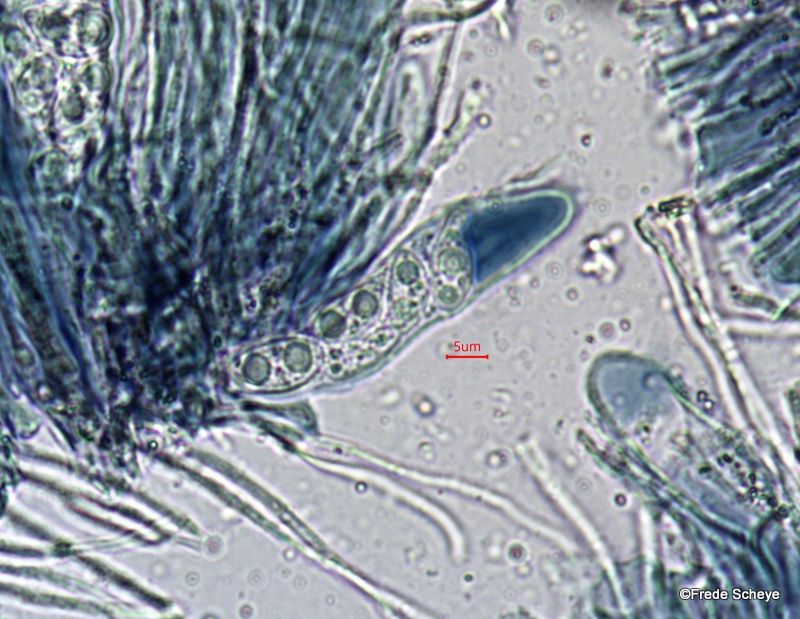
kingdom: Fungi
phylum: Ascomycota
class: Lecanoromycetes
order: Lecanorales
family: Lecanoraceae
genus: Lecidella
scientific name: Lecidella euphorea
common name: vortet skivelav
